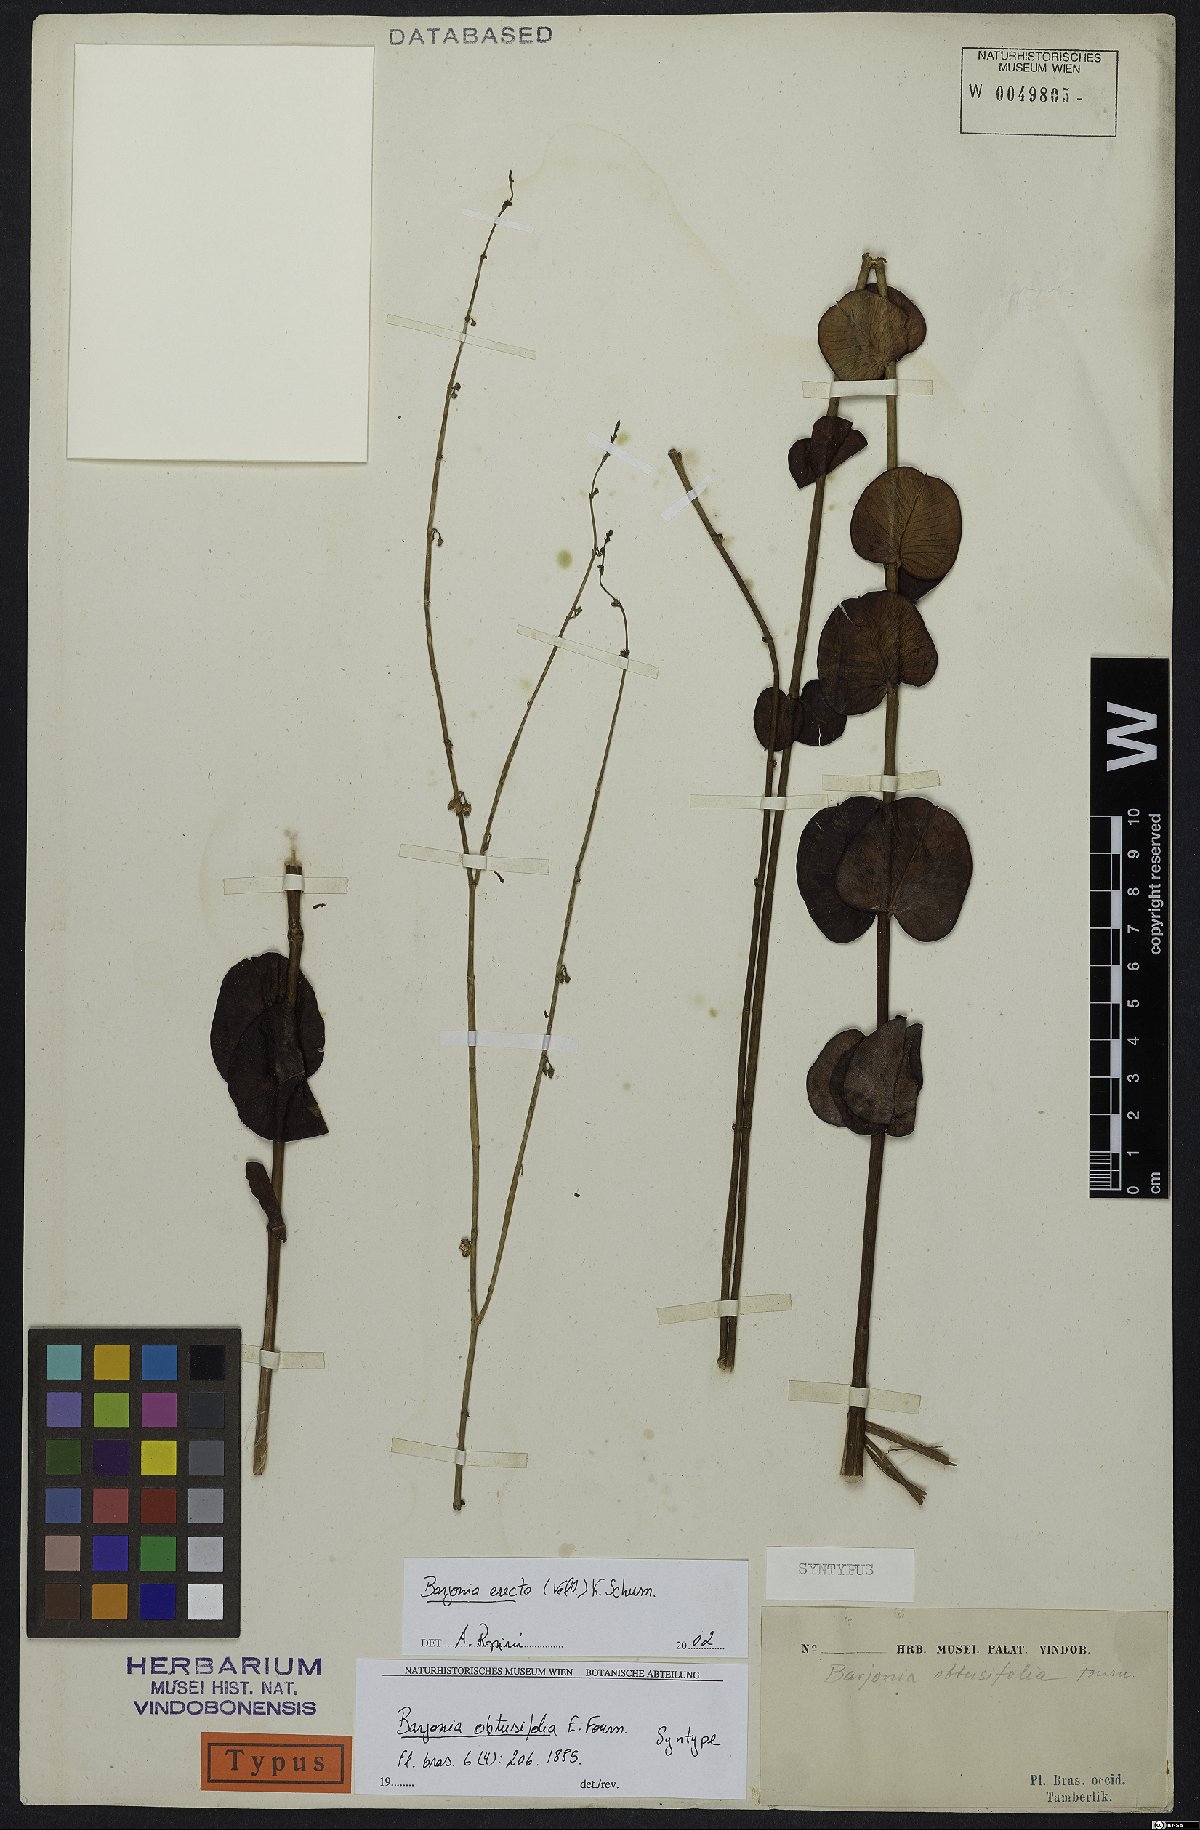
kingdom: Plantae
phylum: Tracheophyta
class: Magnoliopsida
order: Gentianales
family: Apocynaceae
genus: Barjonia
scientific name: Barjonia erecta
